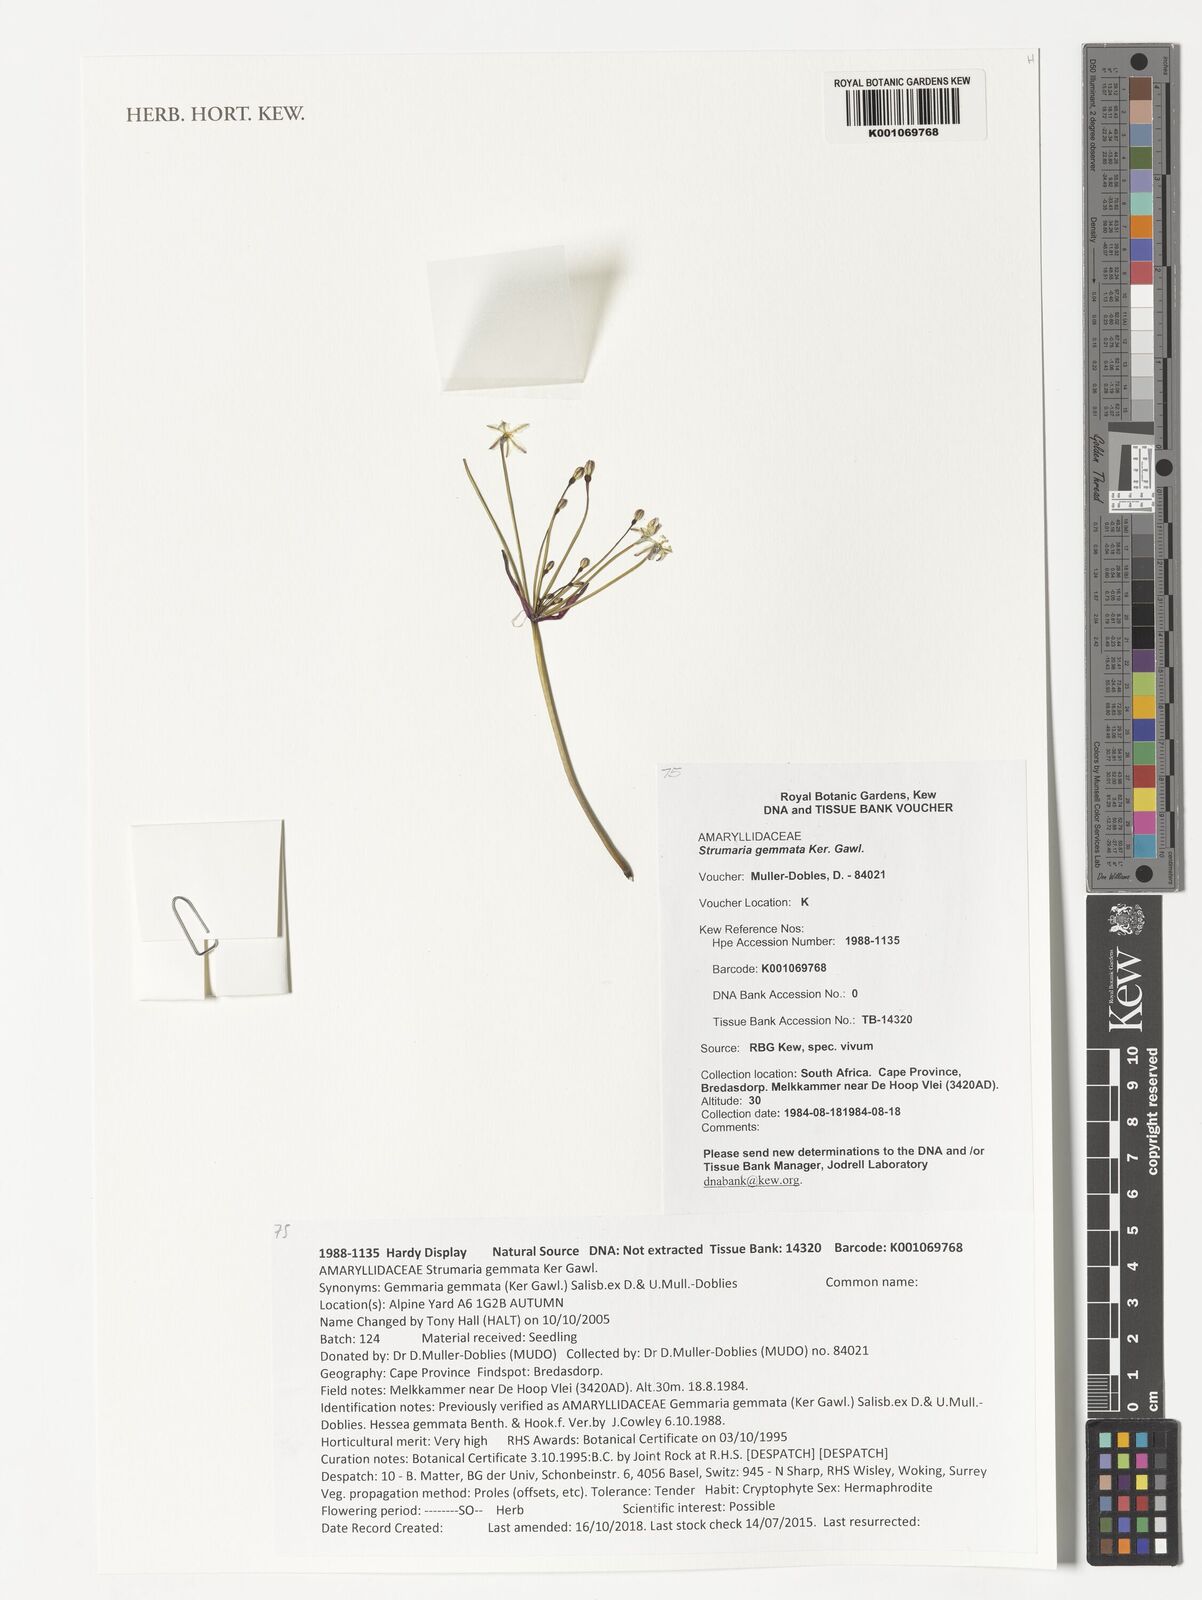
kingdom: Plantae
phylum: Tracheophyta
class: Liliopsida
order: Asparagales
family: Amaryllidaceae
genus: Strumaria
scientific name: Strumaria gemmata
